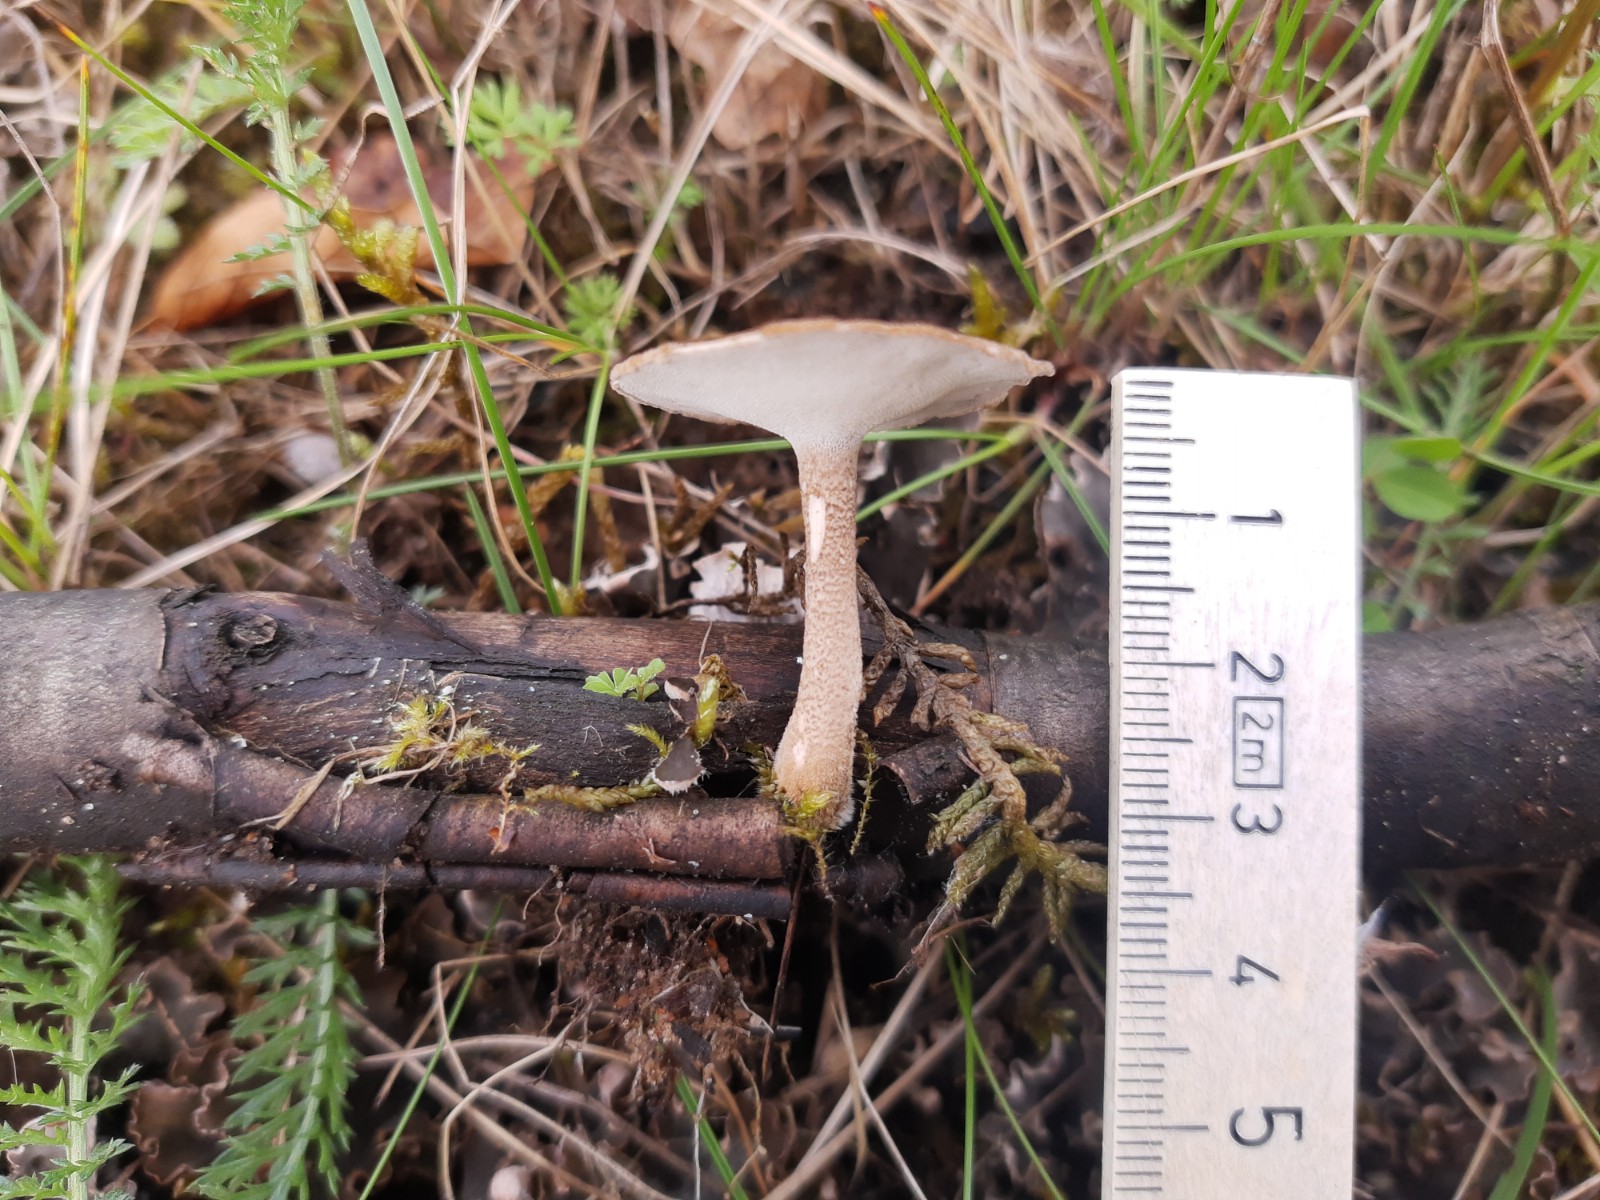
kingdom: Fungi
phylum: Basidiomycota
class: Agaricomycetes
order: Polyporales
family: Polyporaceae
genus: Lentinus
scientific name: Lentinus substrictus
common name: forårs-stilkporesvamp
